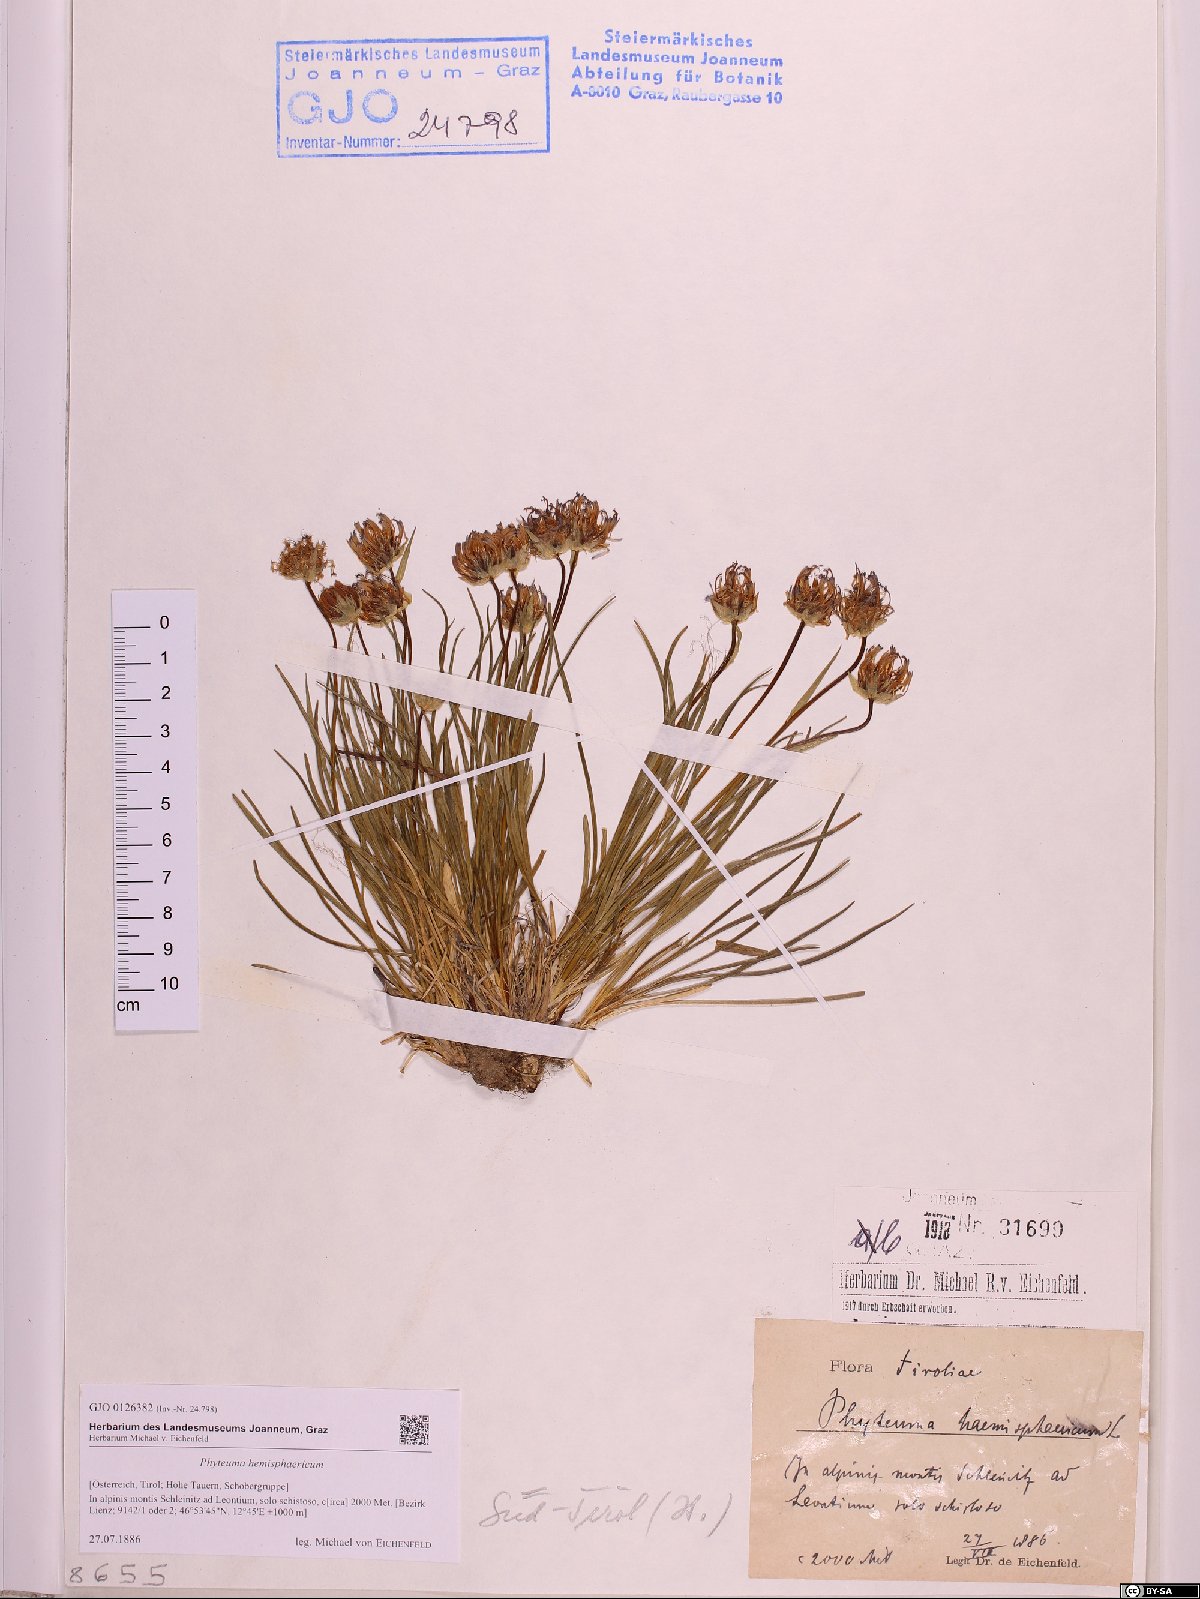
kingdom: Plantae
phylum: Tracheophyta
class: Magnoliopsida
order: Asterales
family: Campanulaceae
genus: Phyteuma
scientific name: Phyteuma hemisphaericum
